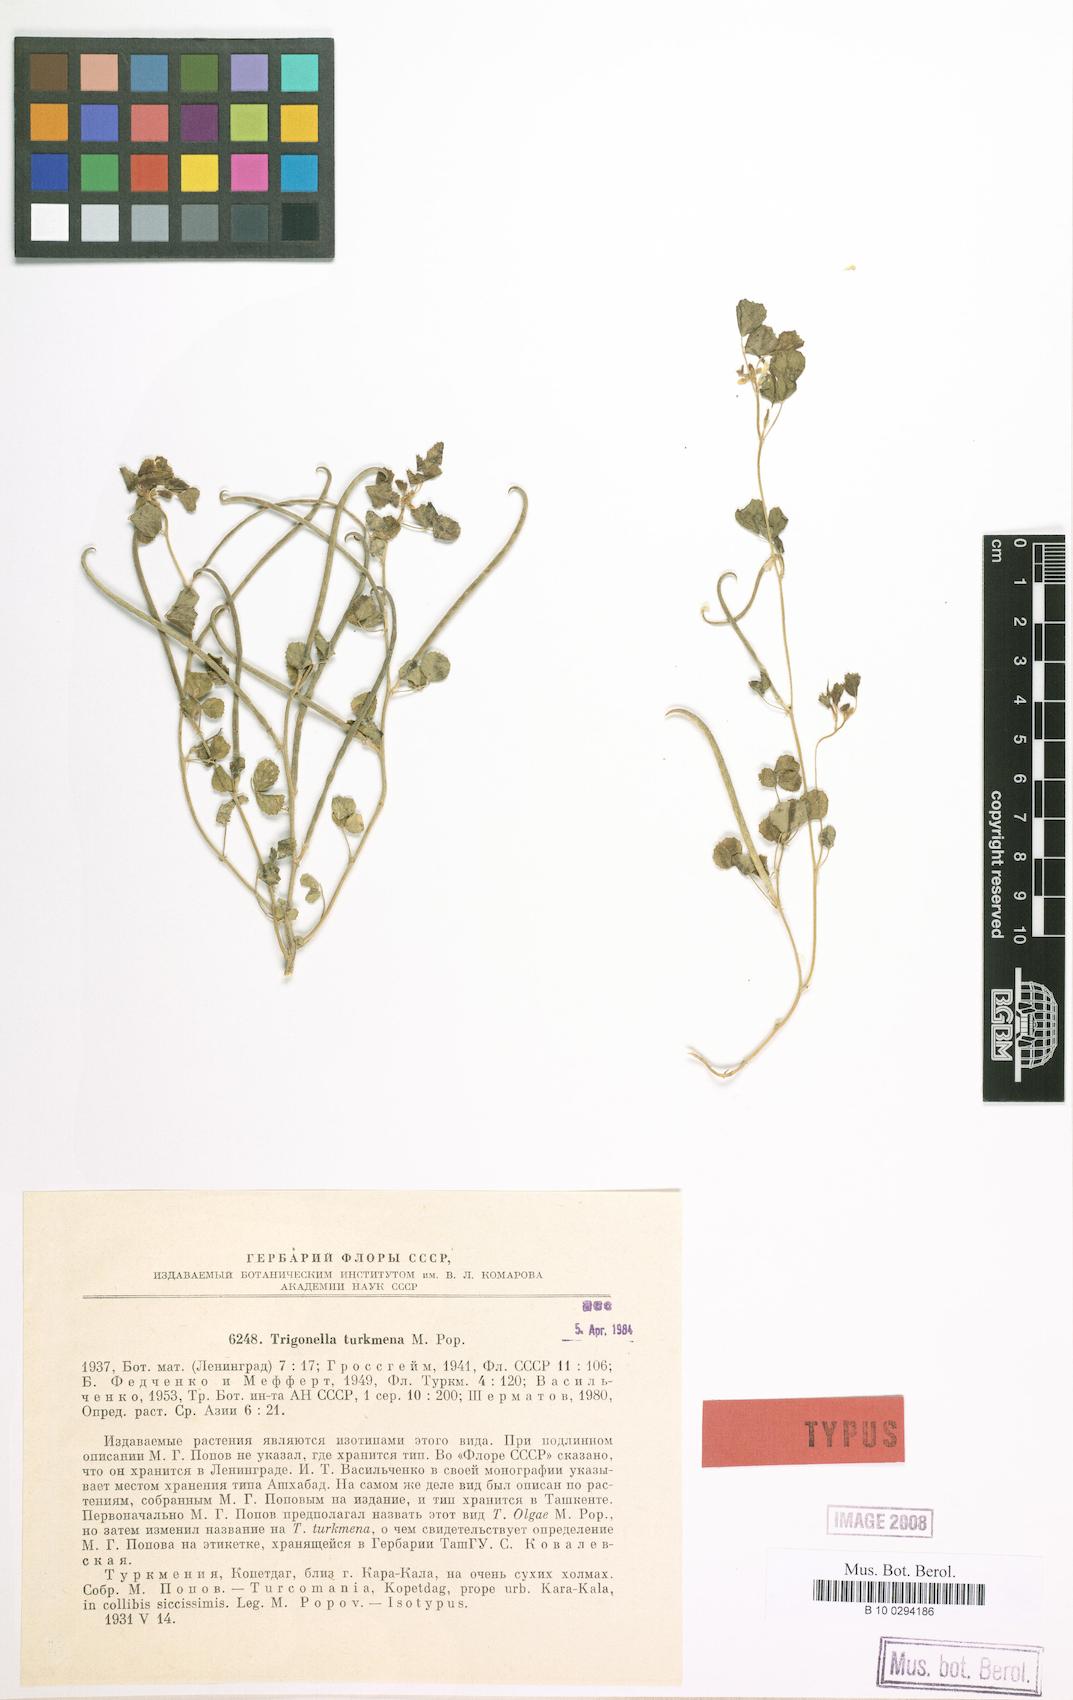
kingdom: Plantae
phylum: Tracheophyta
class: Magnoliopsida
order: Fabales
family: Fabaceae
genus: Trigonella
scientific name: Trigonella turkmena
